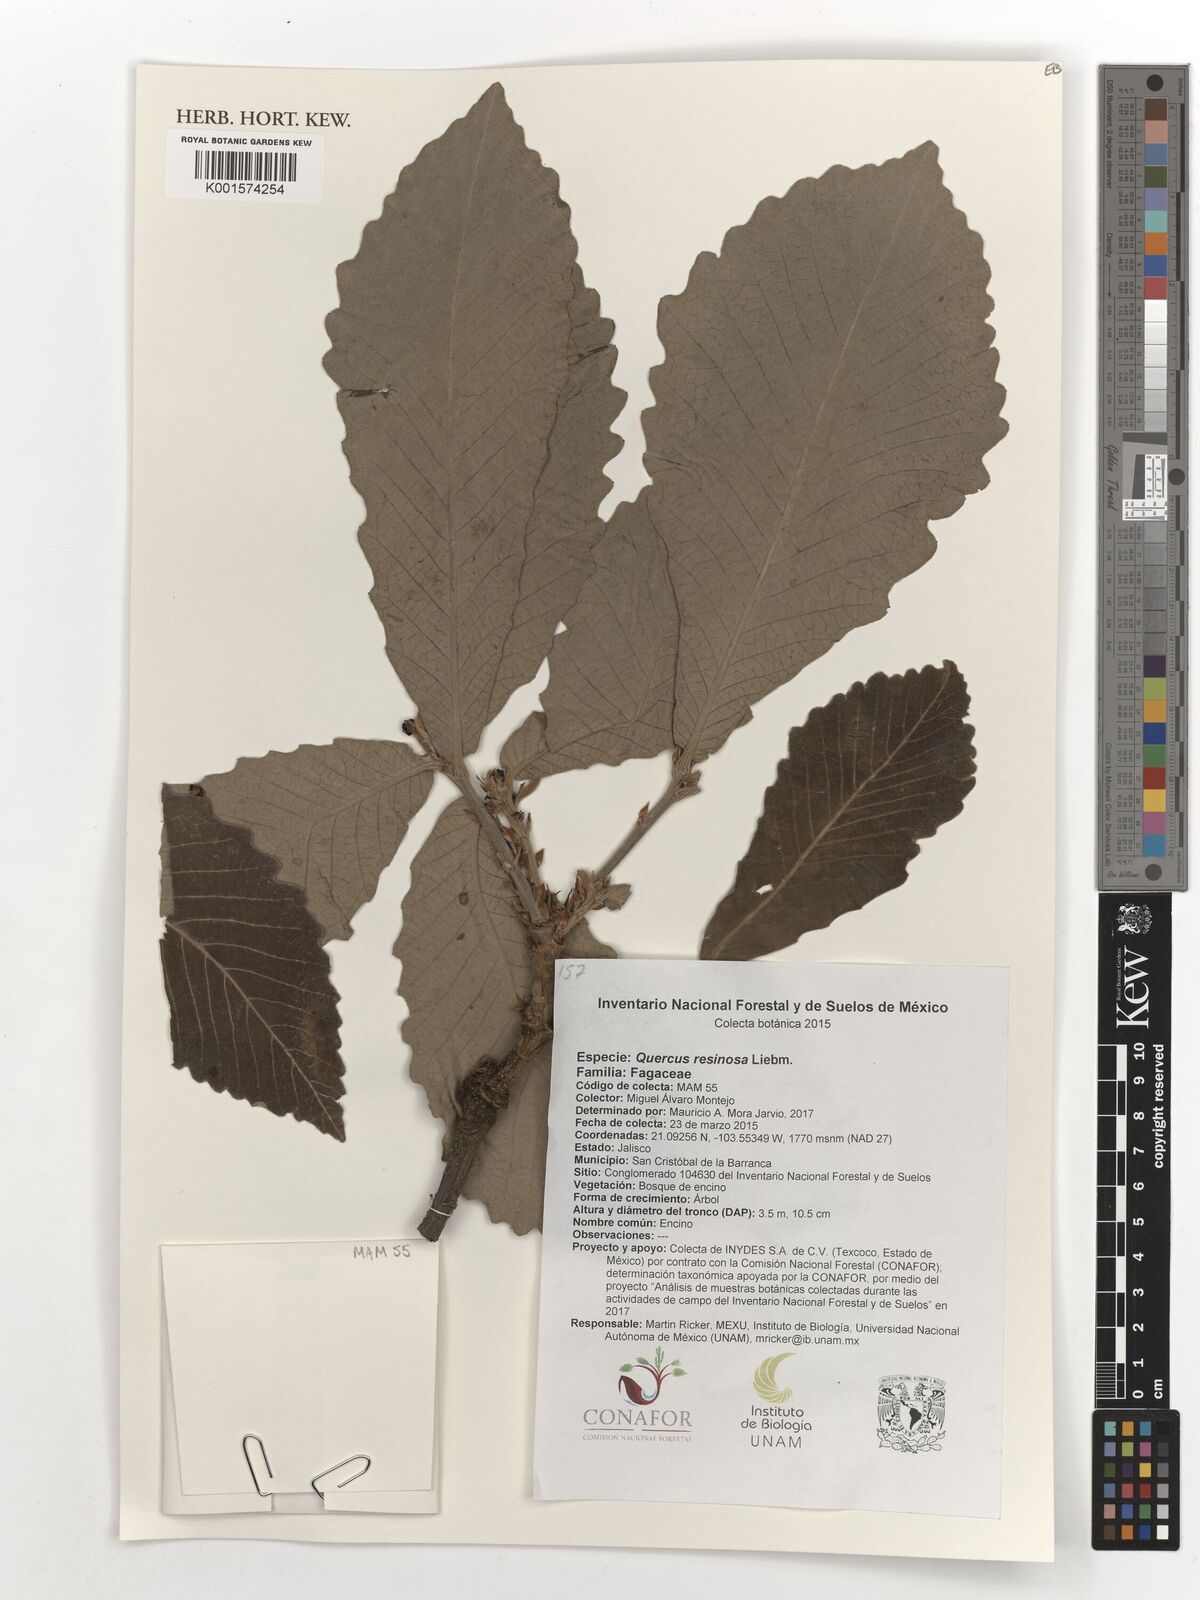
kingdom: Plantae
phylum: Tracheophyta
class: Magnoliopsida
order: Fagales
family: Fagaceae
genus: Quercus
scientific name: Quercus resinosa
